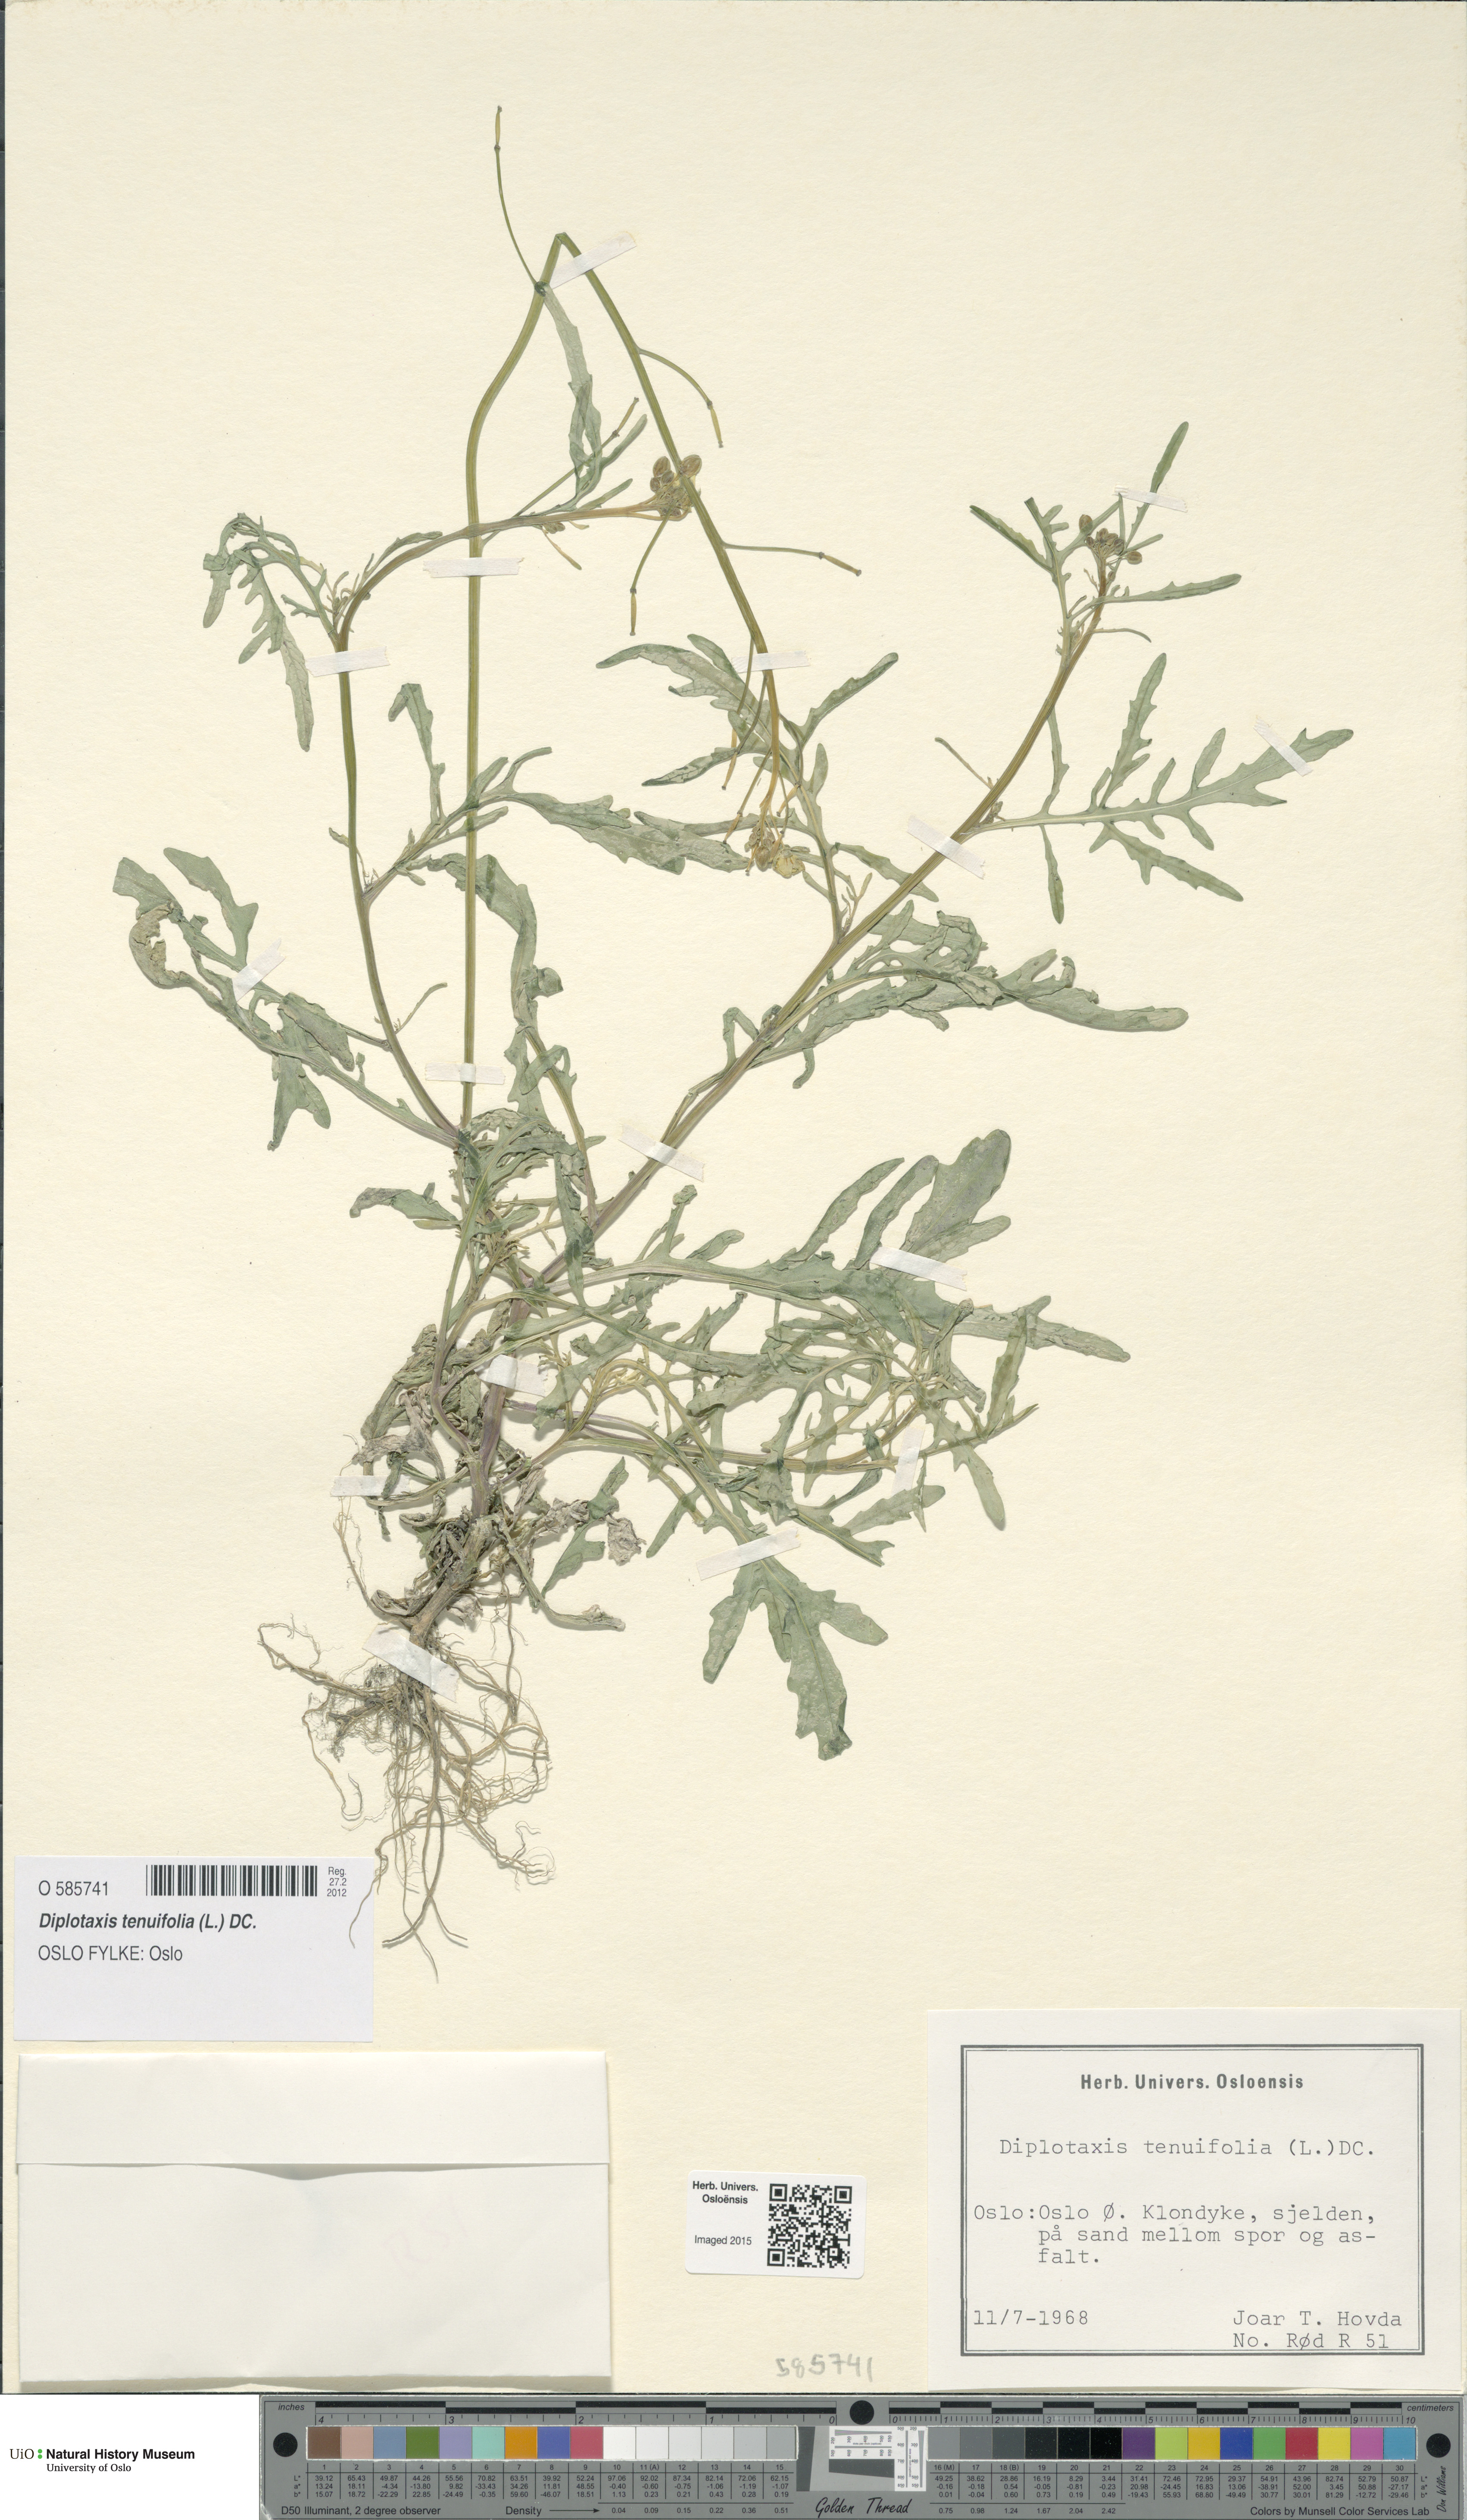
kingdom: Plantae
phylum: Tracheophyta
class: Magnoliopsida
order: Brassicales
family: Brassicaceae
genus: Diplotaxis
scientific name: Diplotaxis tenuifolia
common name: Perennial wall-rocket
